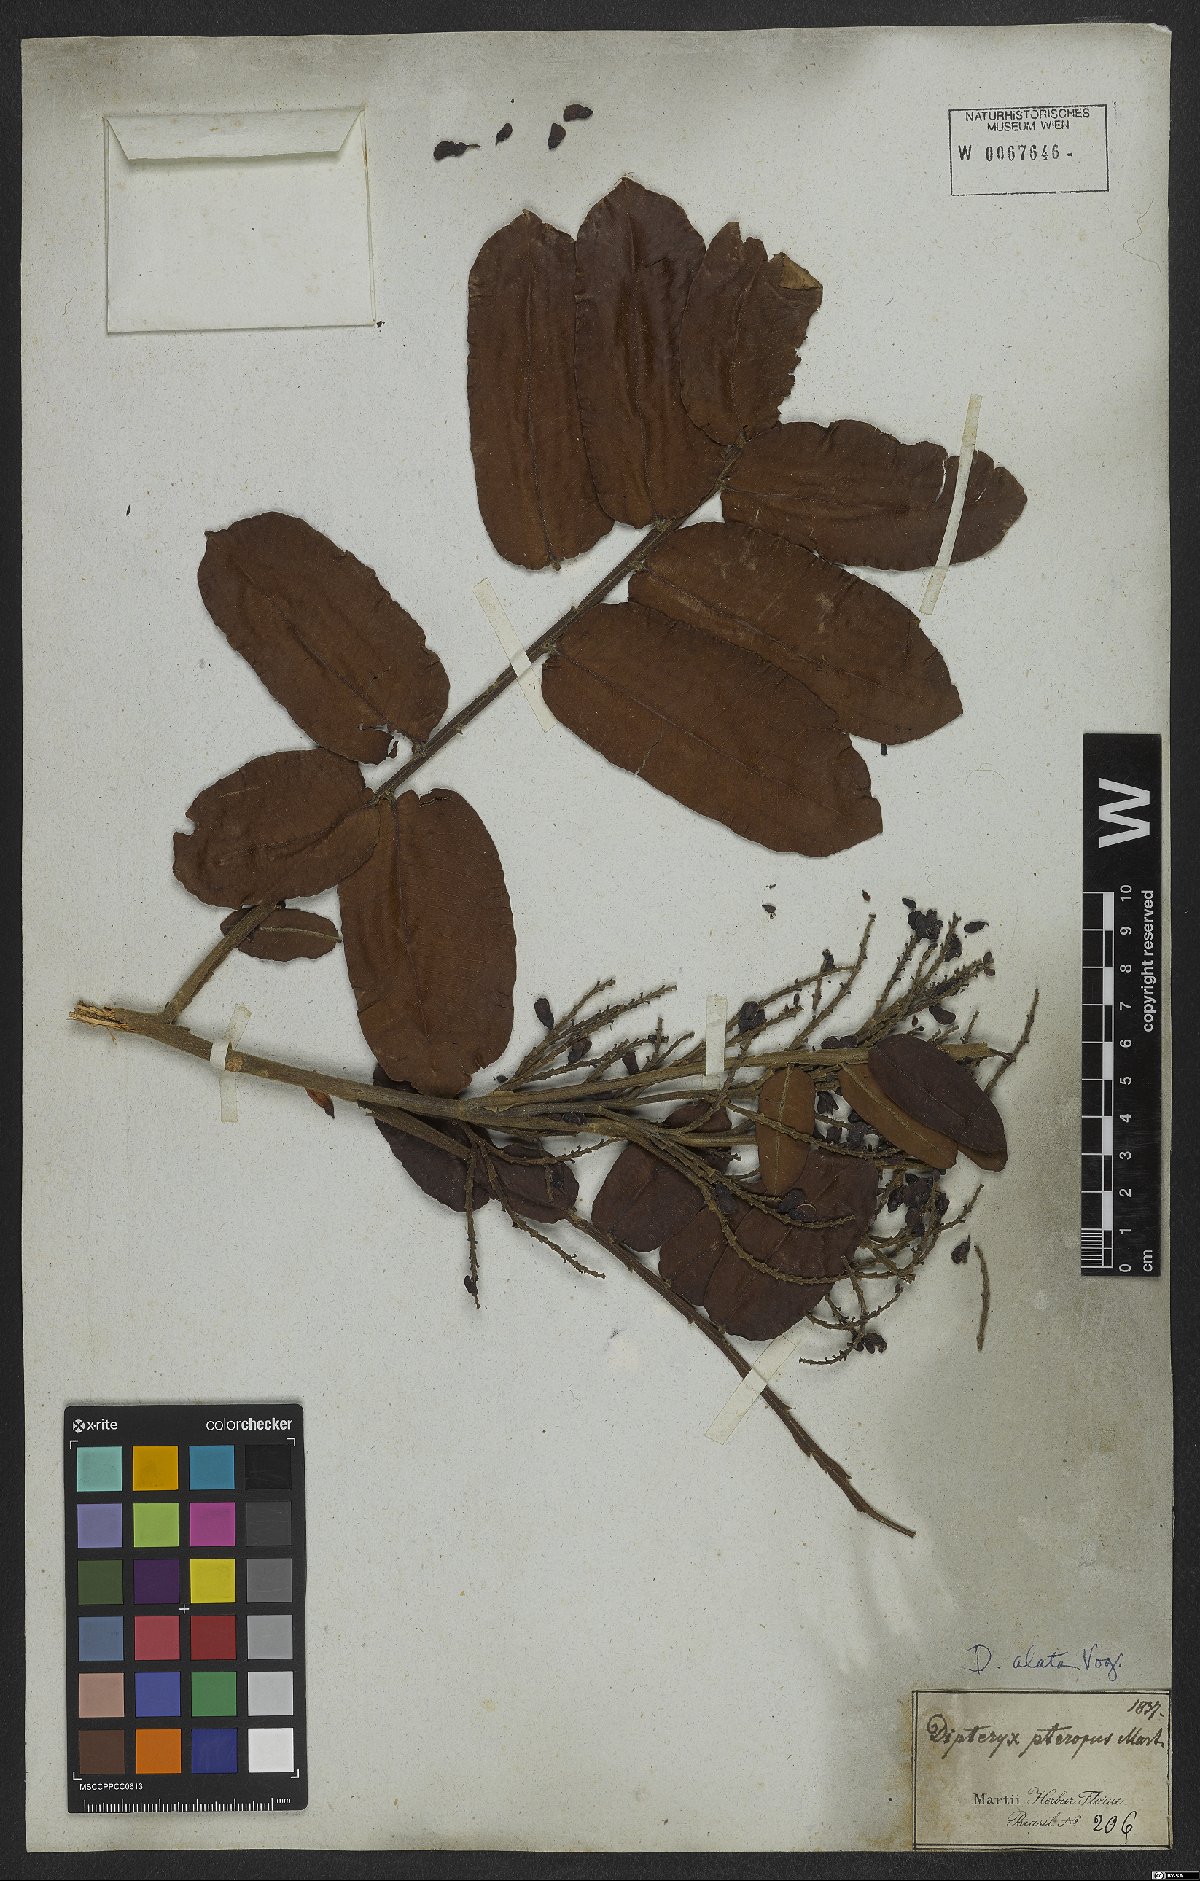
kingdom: Plantae
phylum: Tracheophyta
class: Magnoliopsida
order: Fabales
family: Fabaceae
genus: Dipteryx
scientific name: Dipteryx alata
